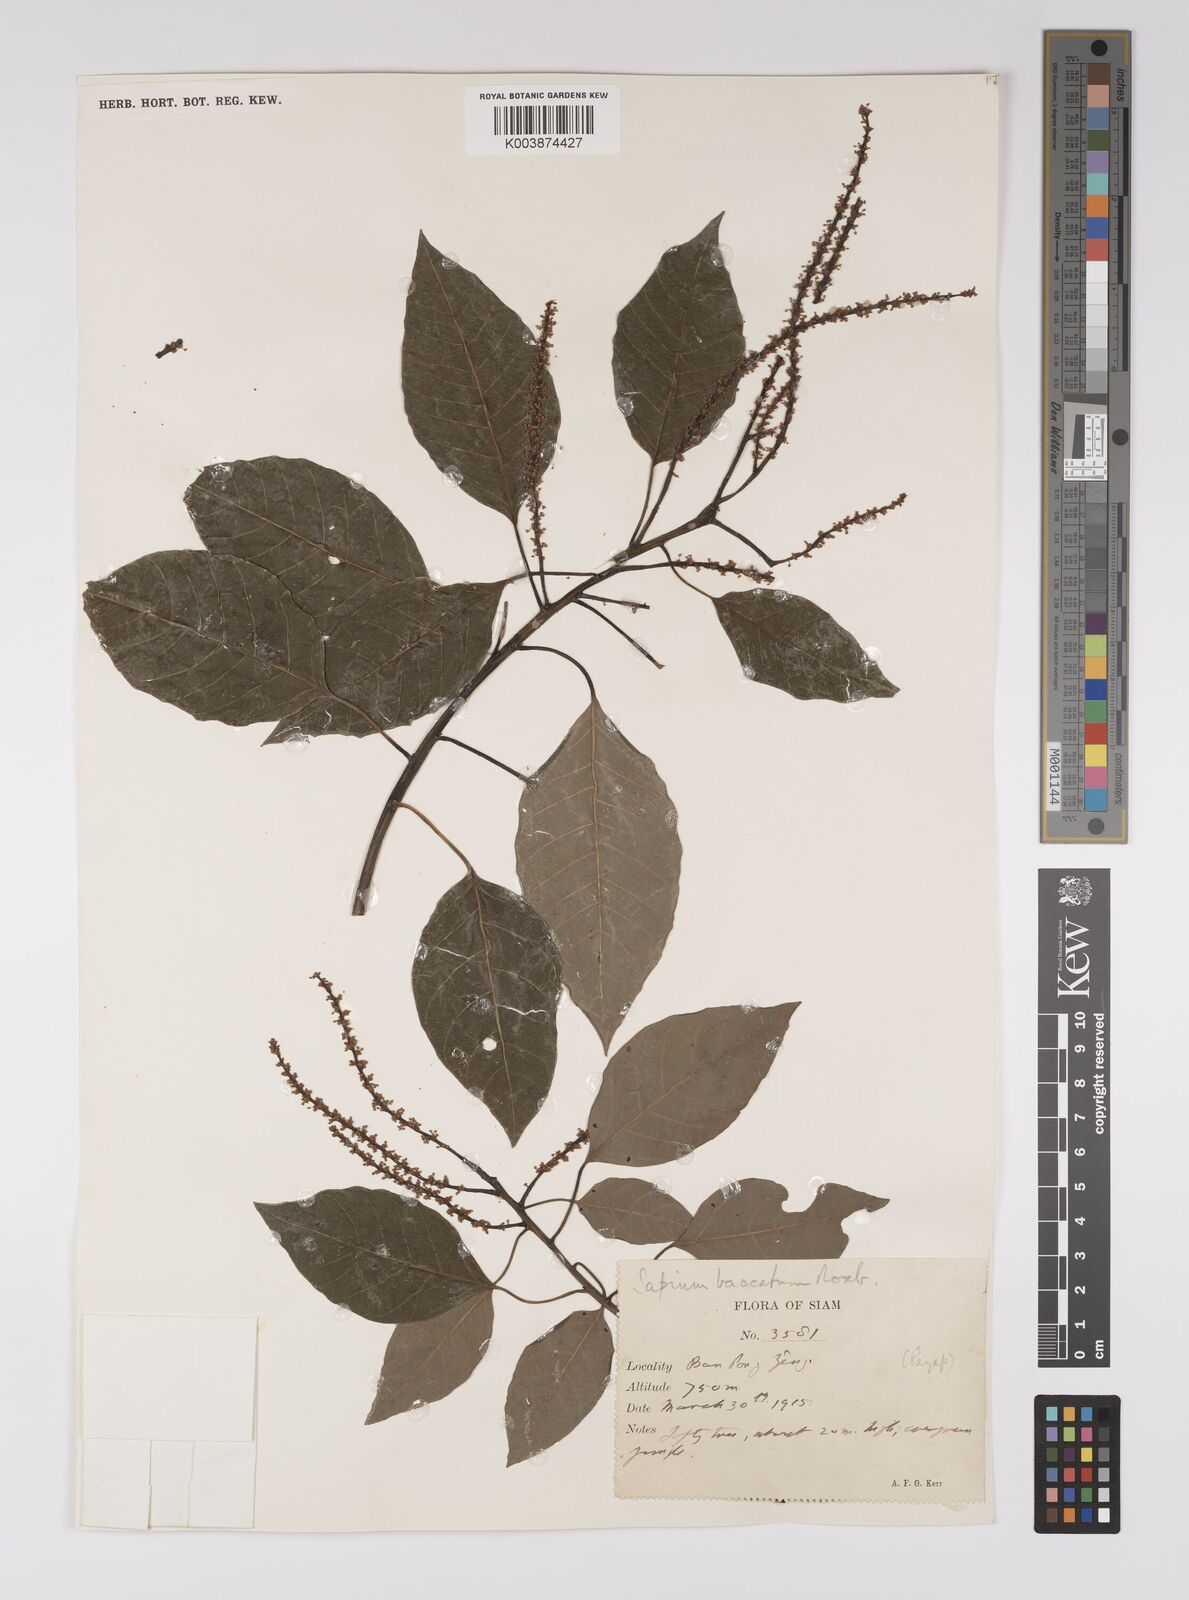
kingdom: Plantae
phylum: Tracheophyta
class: Magnoliopsida
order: Malpighiales
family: Euphorbiaceae
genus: Balakata
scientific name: Balakata baccata
